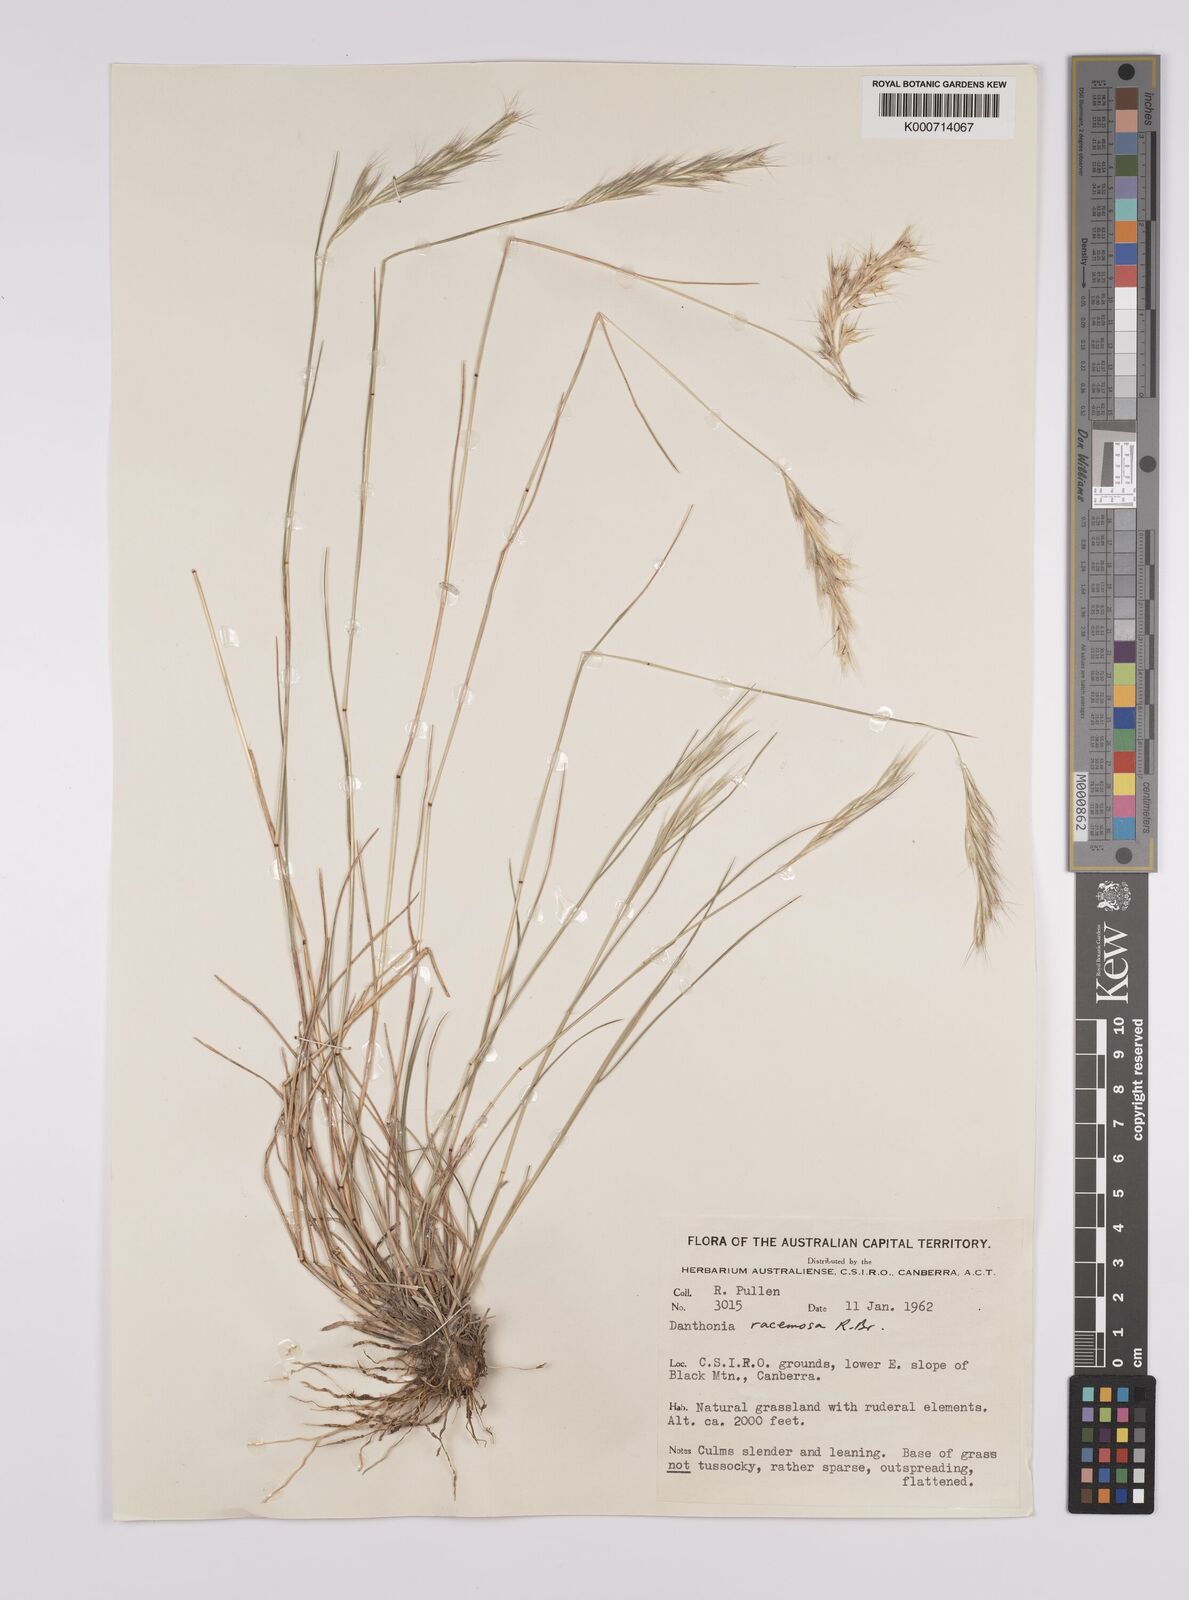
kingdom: Plantae
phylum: Tracheophyta
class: Liliopsida
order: Poales
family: Poaceae
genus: Rytidosperma
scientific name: Rytidosperma racemosum
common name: Wallaby-grass
